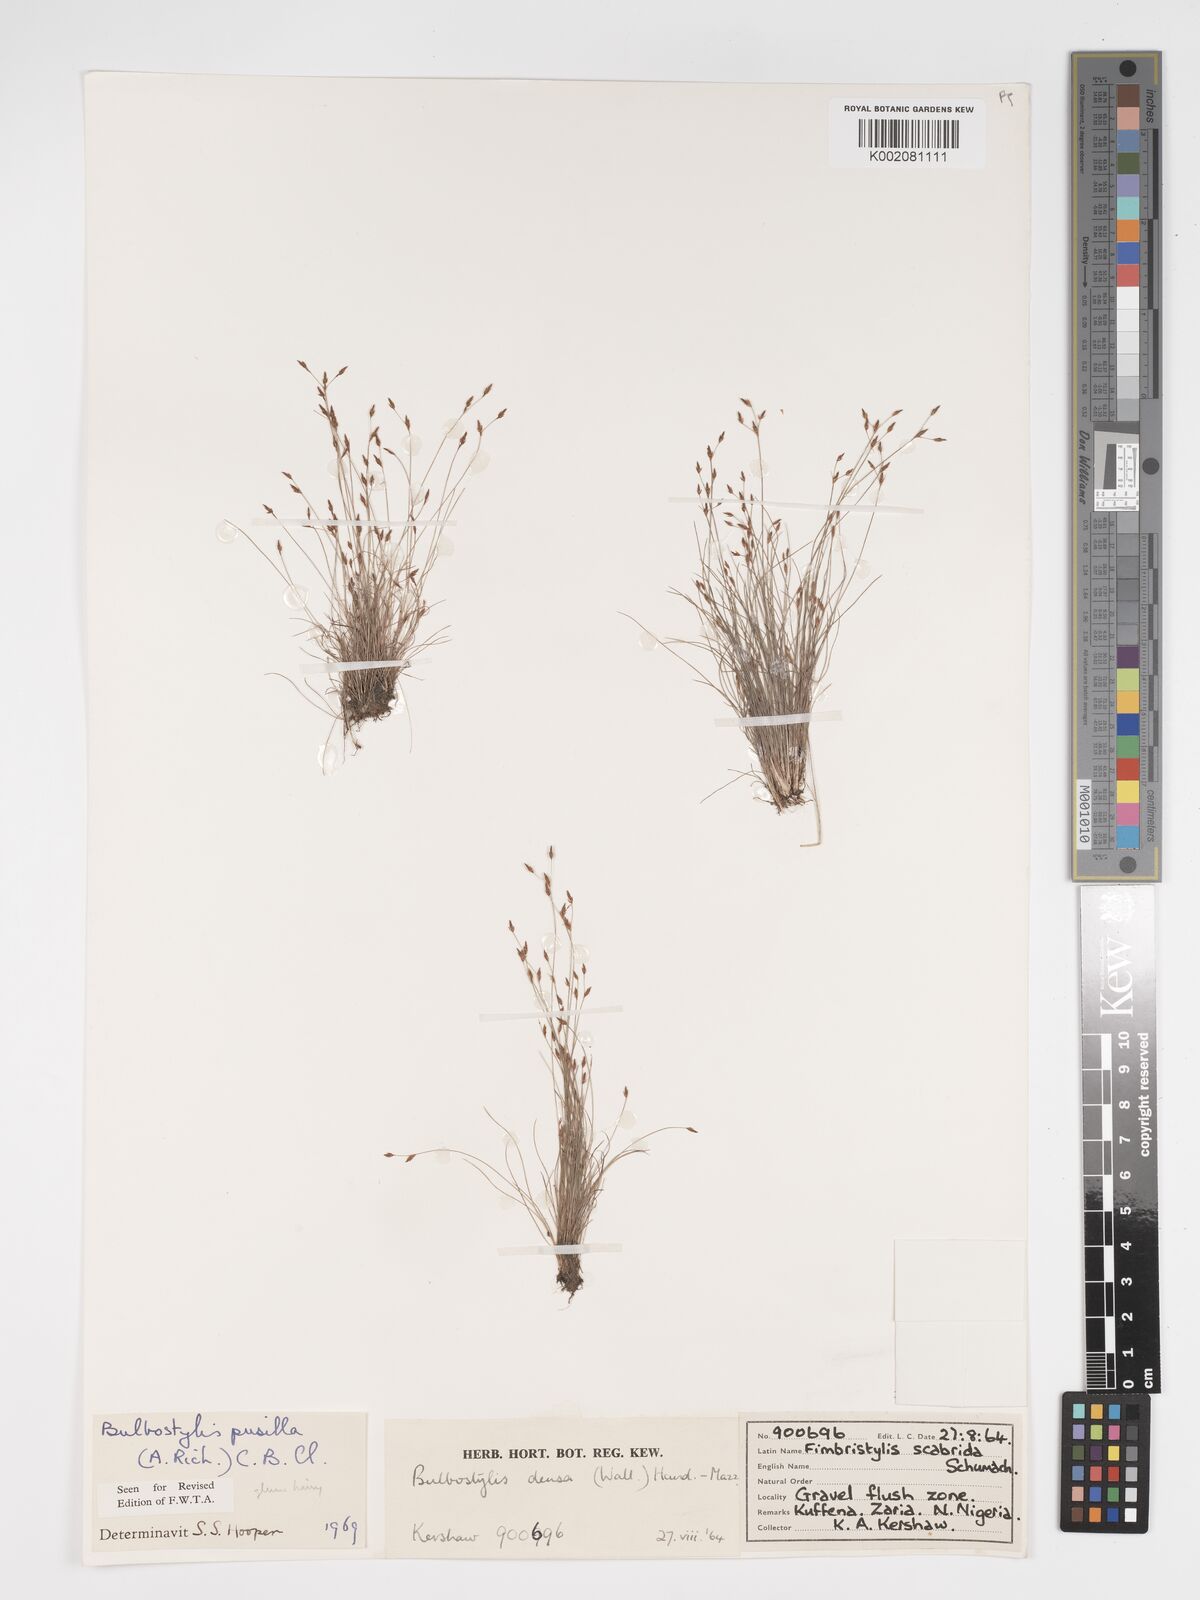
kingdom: Plantae
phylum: Tracheophyta
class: Liliopsida
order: Poales
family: Cyperaceae
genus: Bulbostylis
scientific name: Bulbostylis pusilla
